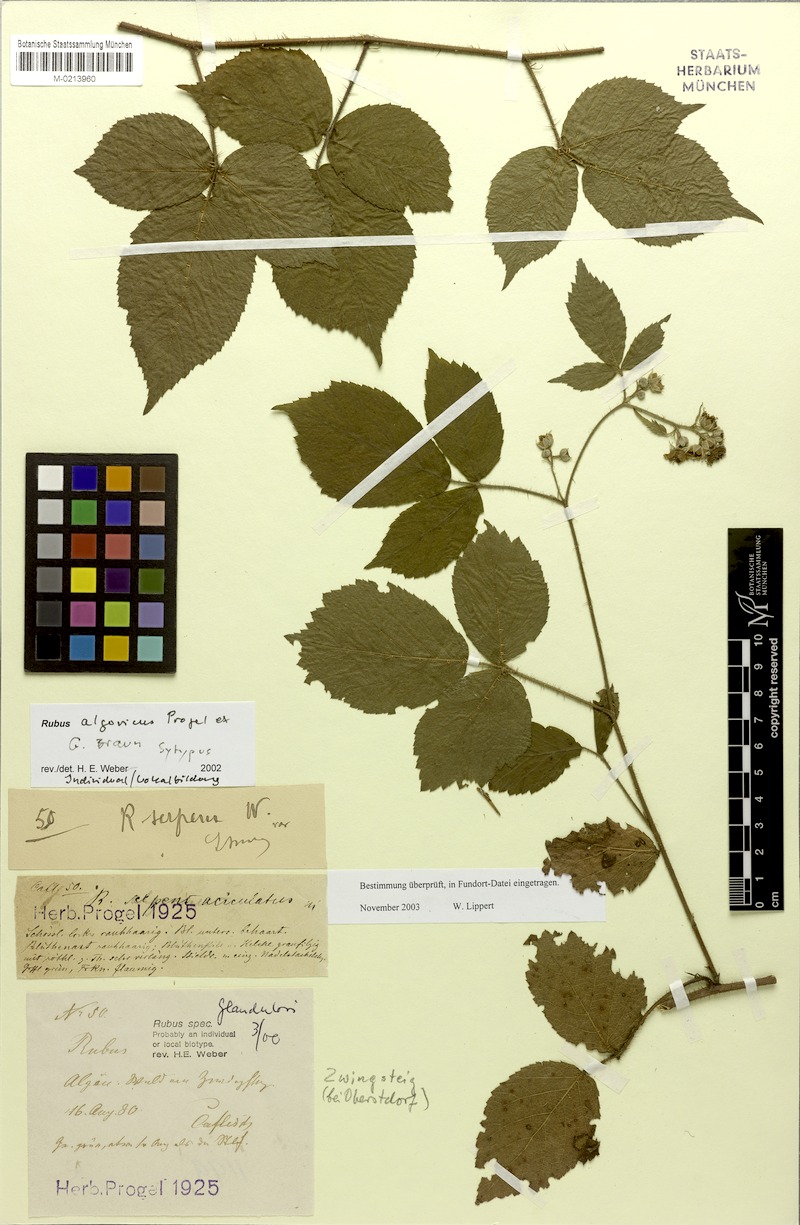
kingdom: Plantae
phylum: Tracheophyta
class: Magnoliopsida
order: Rosales
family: Rosaceae
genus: Rubus
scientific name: Rubus
